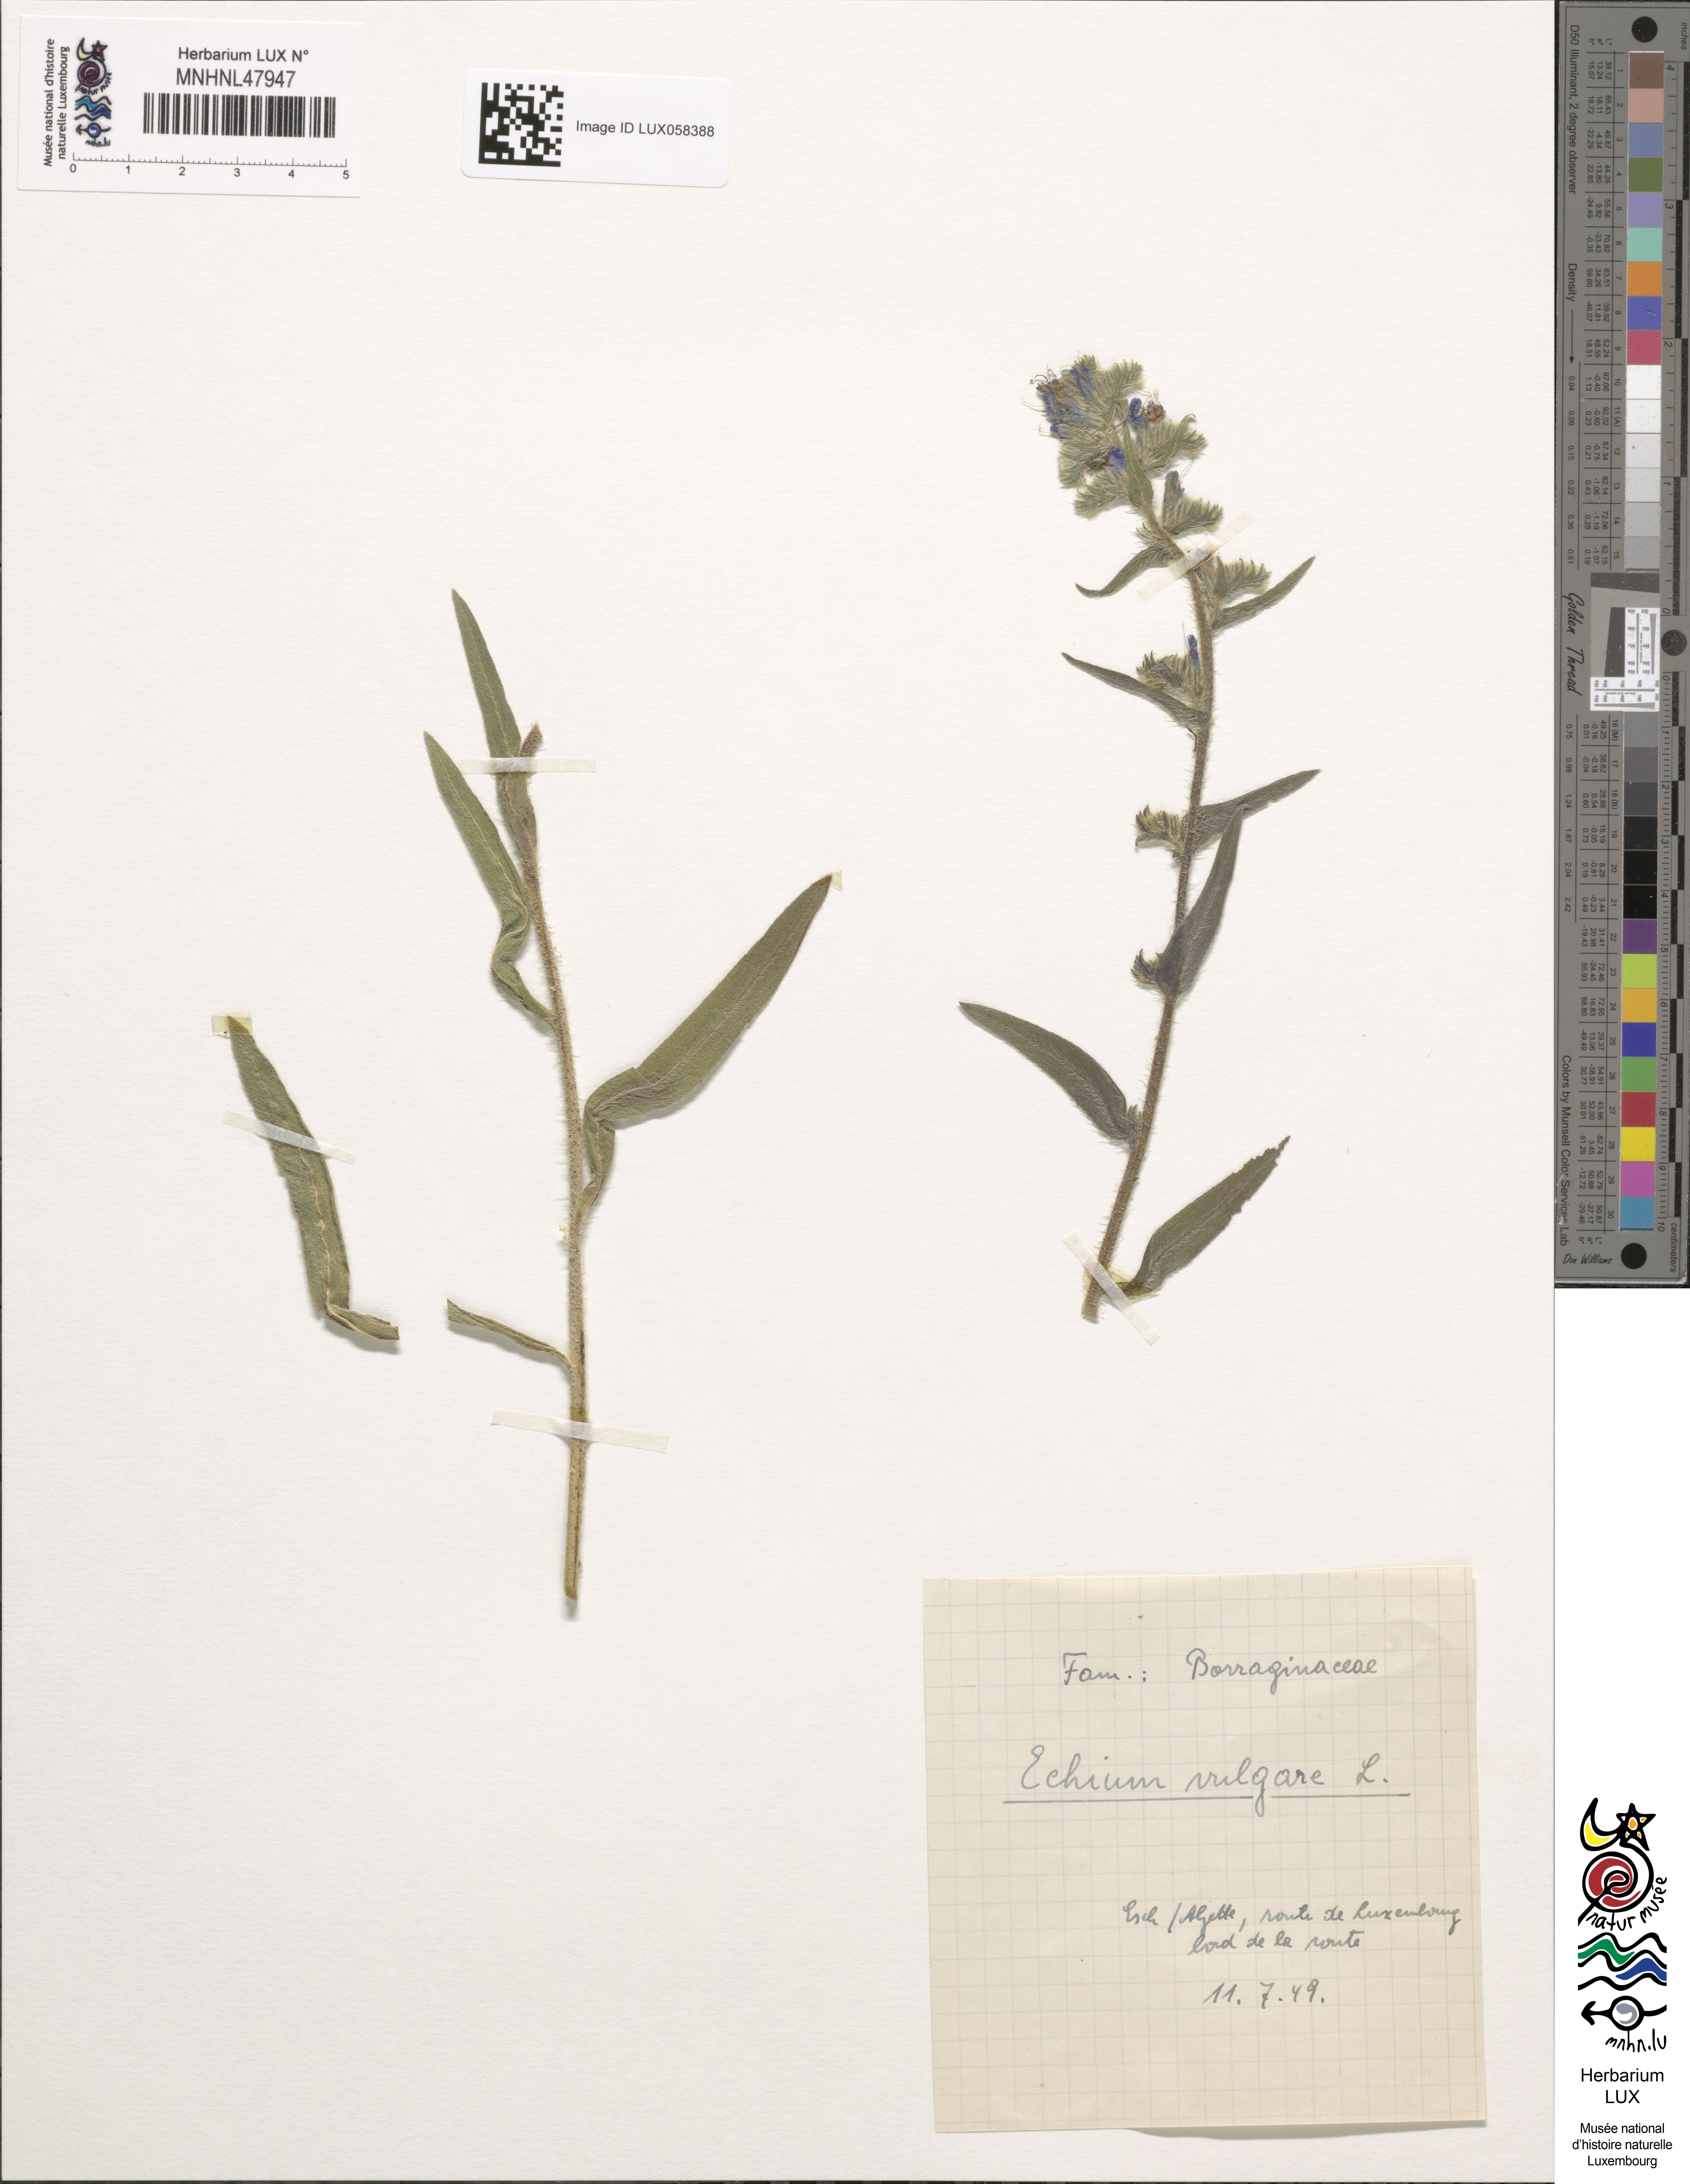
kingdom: Plantae
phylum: Tracheophyta
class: Magnoliopsida
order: Boraginales
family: Boraginaceae
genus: Echium
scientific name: Echium vulgare
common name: Common viper's bugloss
